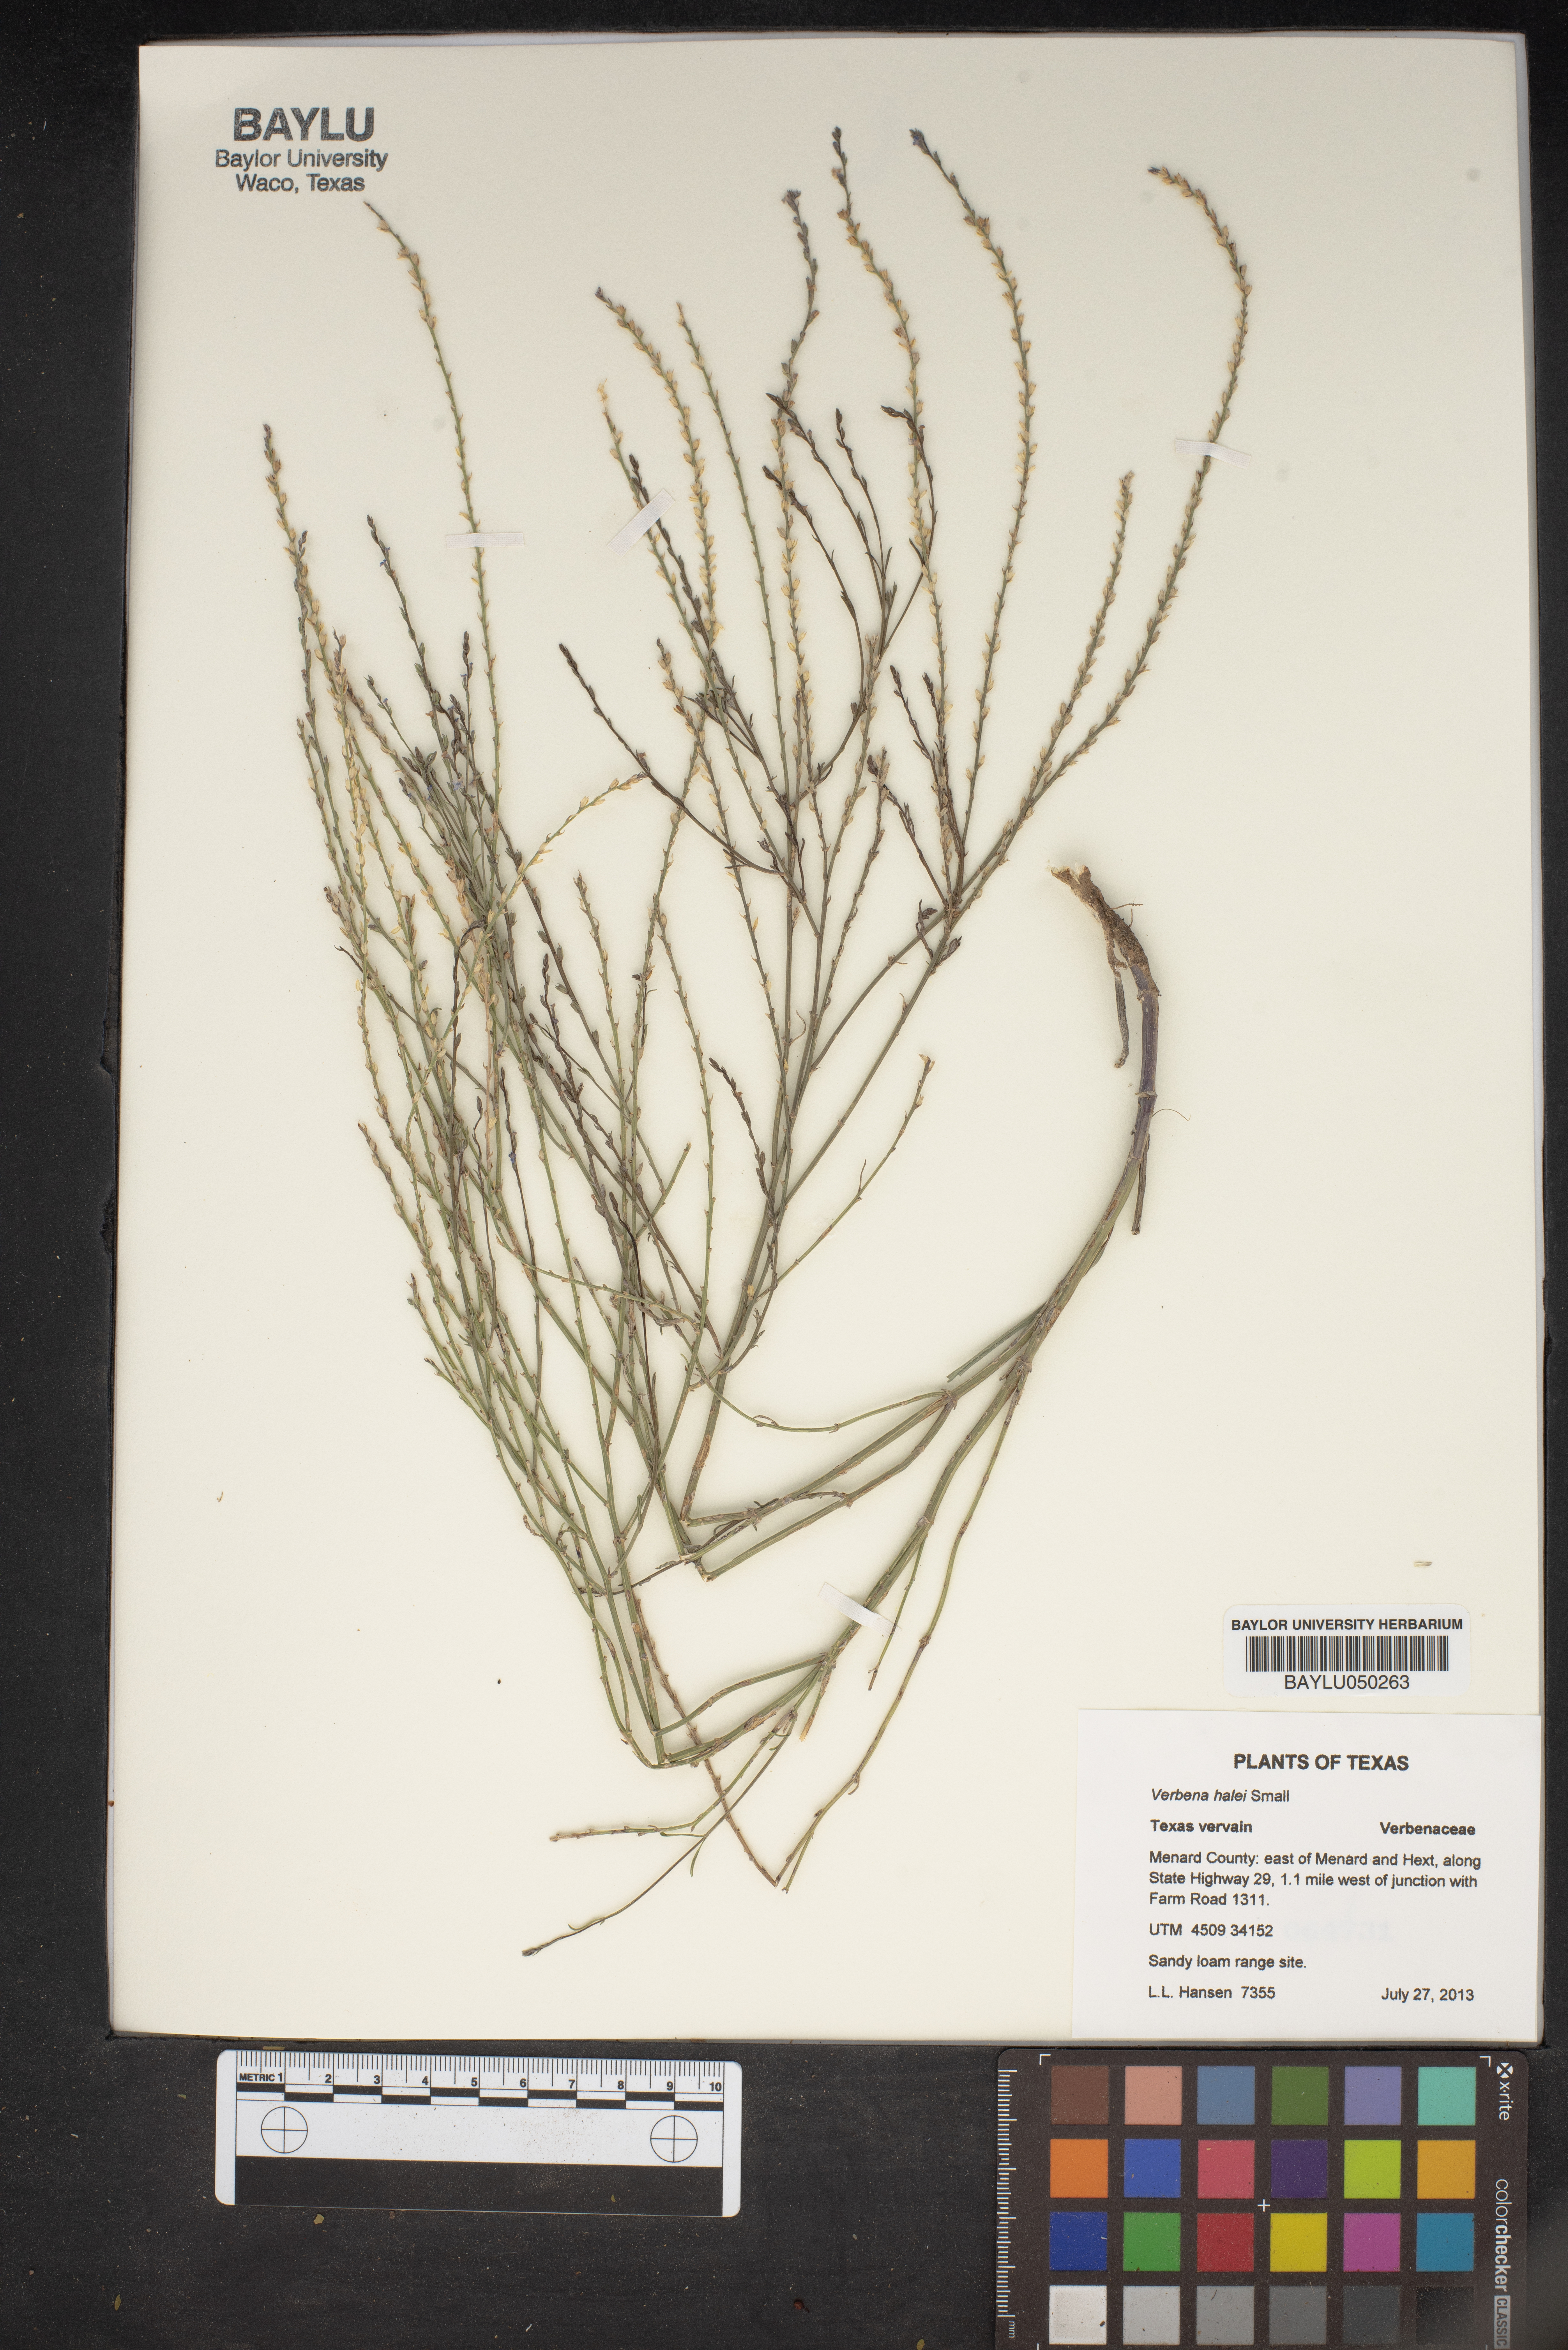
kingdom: Plantae
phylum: Tracheophyta
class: Magnoliopsida
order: Lamiales
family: Verbenaceae
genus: Verbena
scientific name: Verbena halei
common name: Texas vervain
